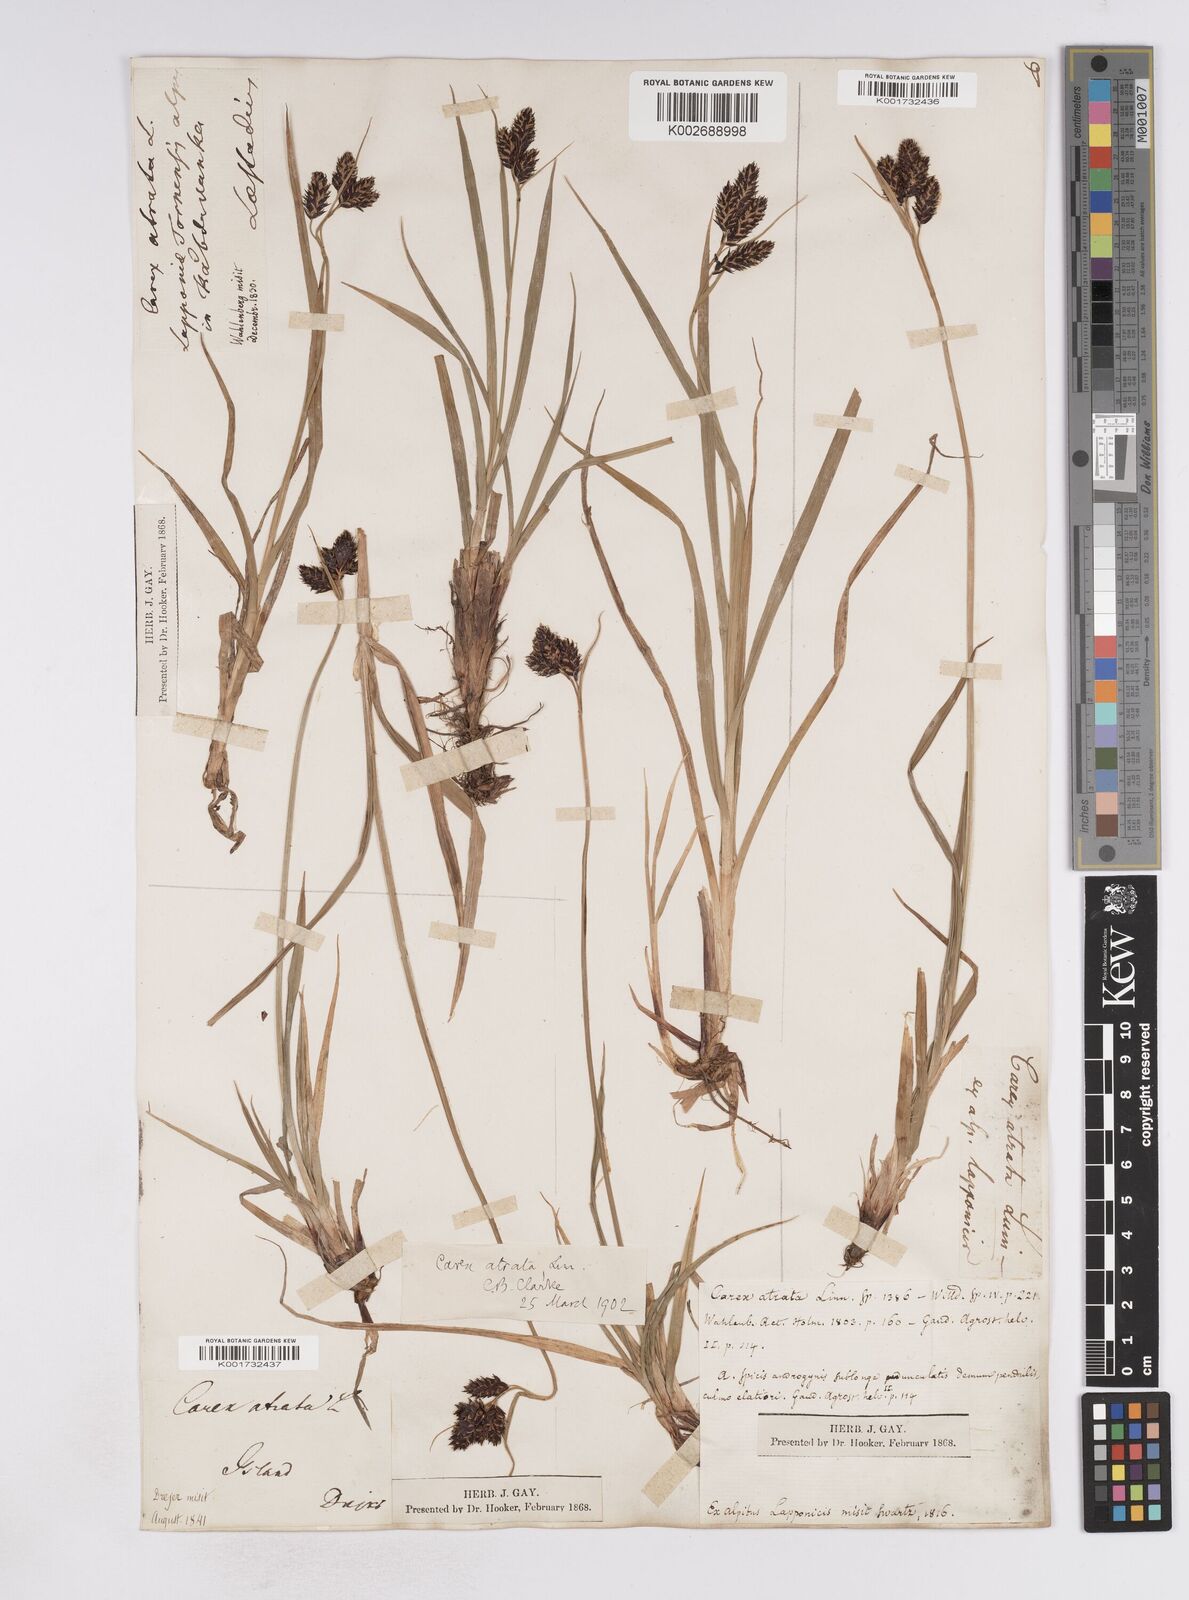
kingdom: Plantae
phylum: Tracheophyta
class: Liliopsida
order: Poales
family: Cyperaceae
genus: Carex
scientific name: Carex atrata
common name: Black alpine sedge
